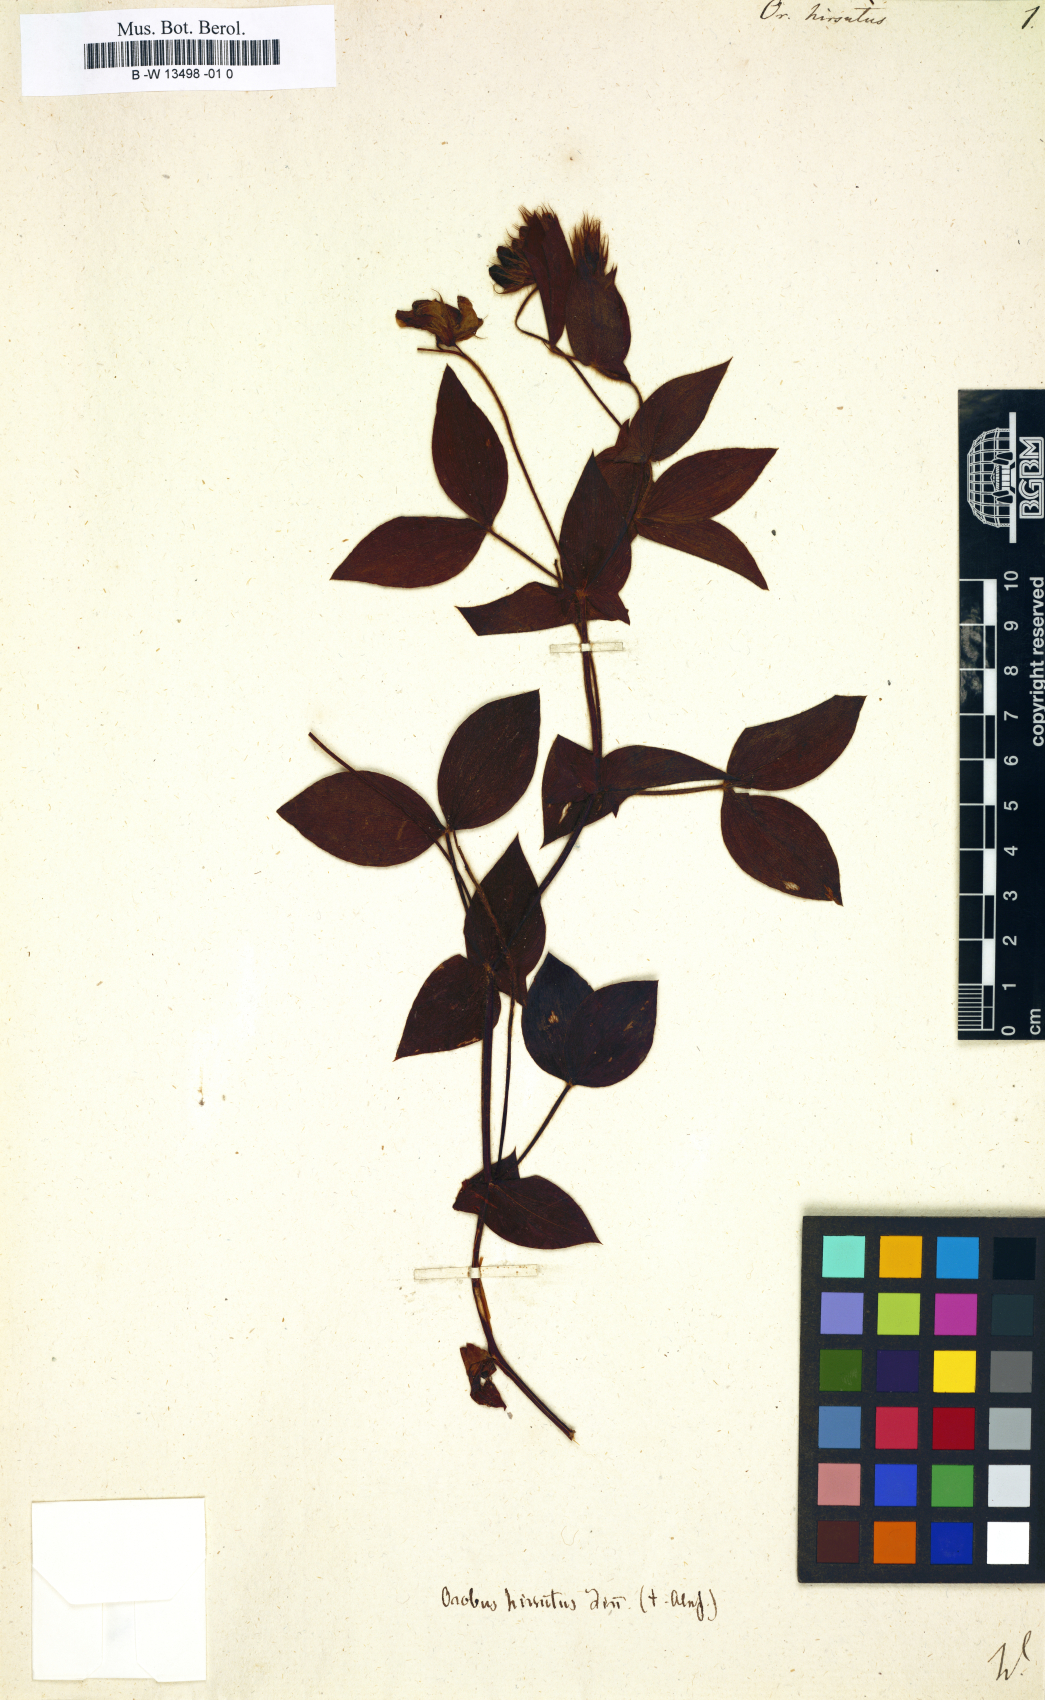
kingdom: Plantae
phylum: Tracheophyta
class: Magnoliopsida
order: Fabales
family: Fabaceae
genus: Lathyrus
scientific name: Lathyrus laxiflorus
